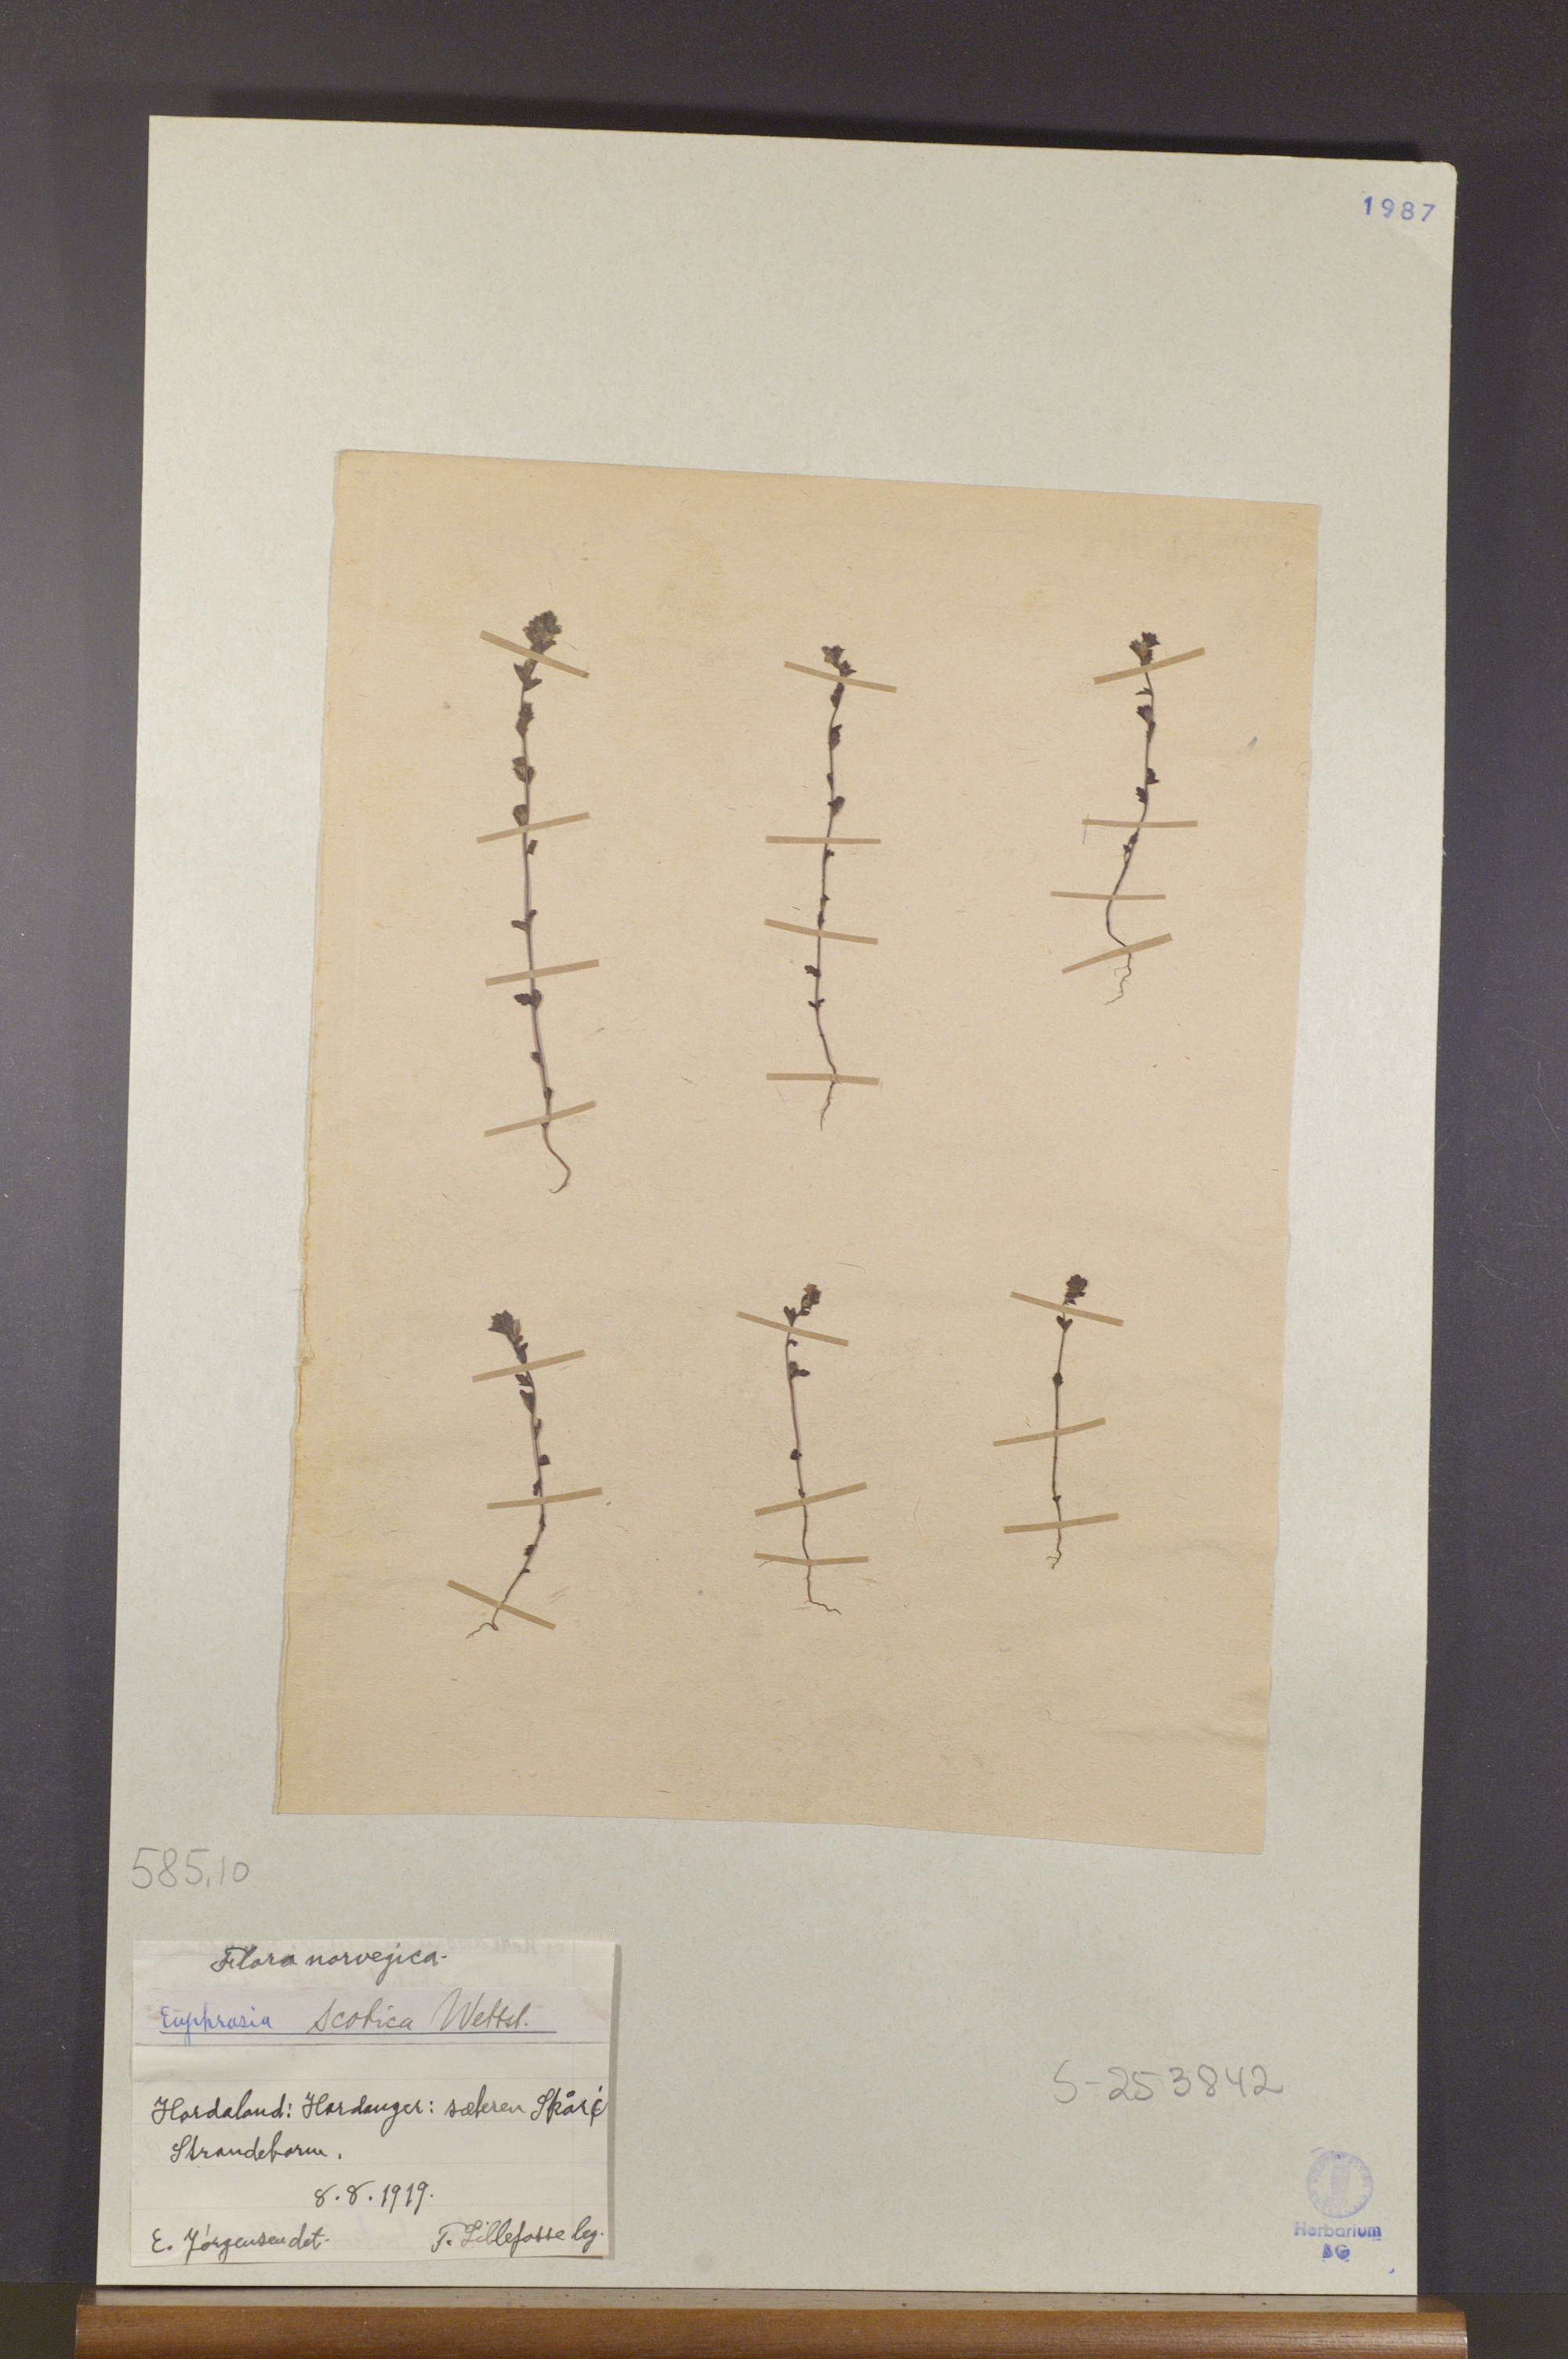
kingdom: Plantae
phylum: Tracheophyta
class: Magnoliopsida
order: Lamiales
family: Orobanchaceae
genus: Euphrasia
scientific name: Euphrasia scottica
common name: Slender scottish eyebright
